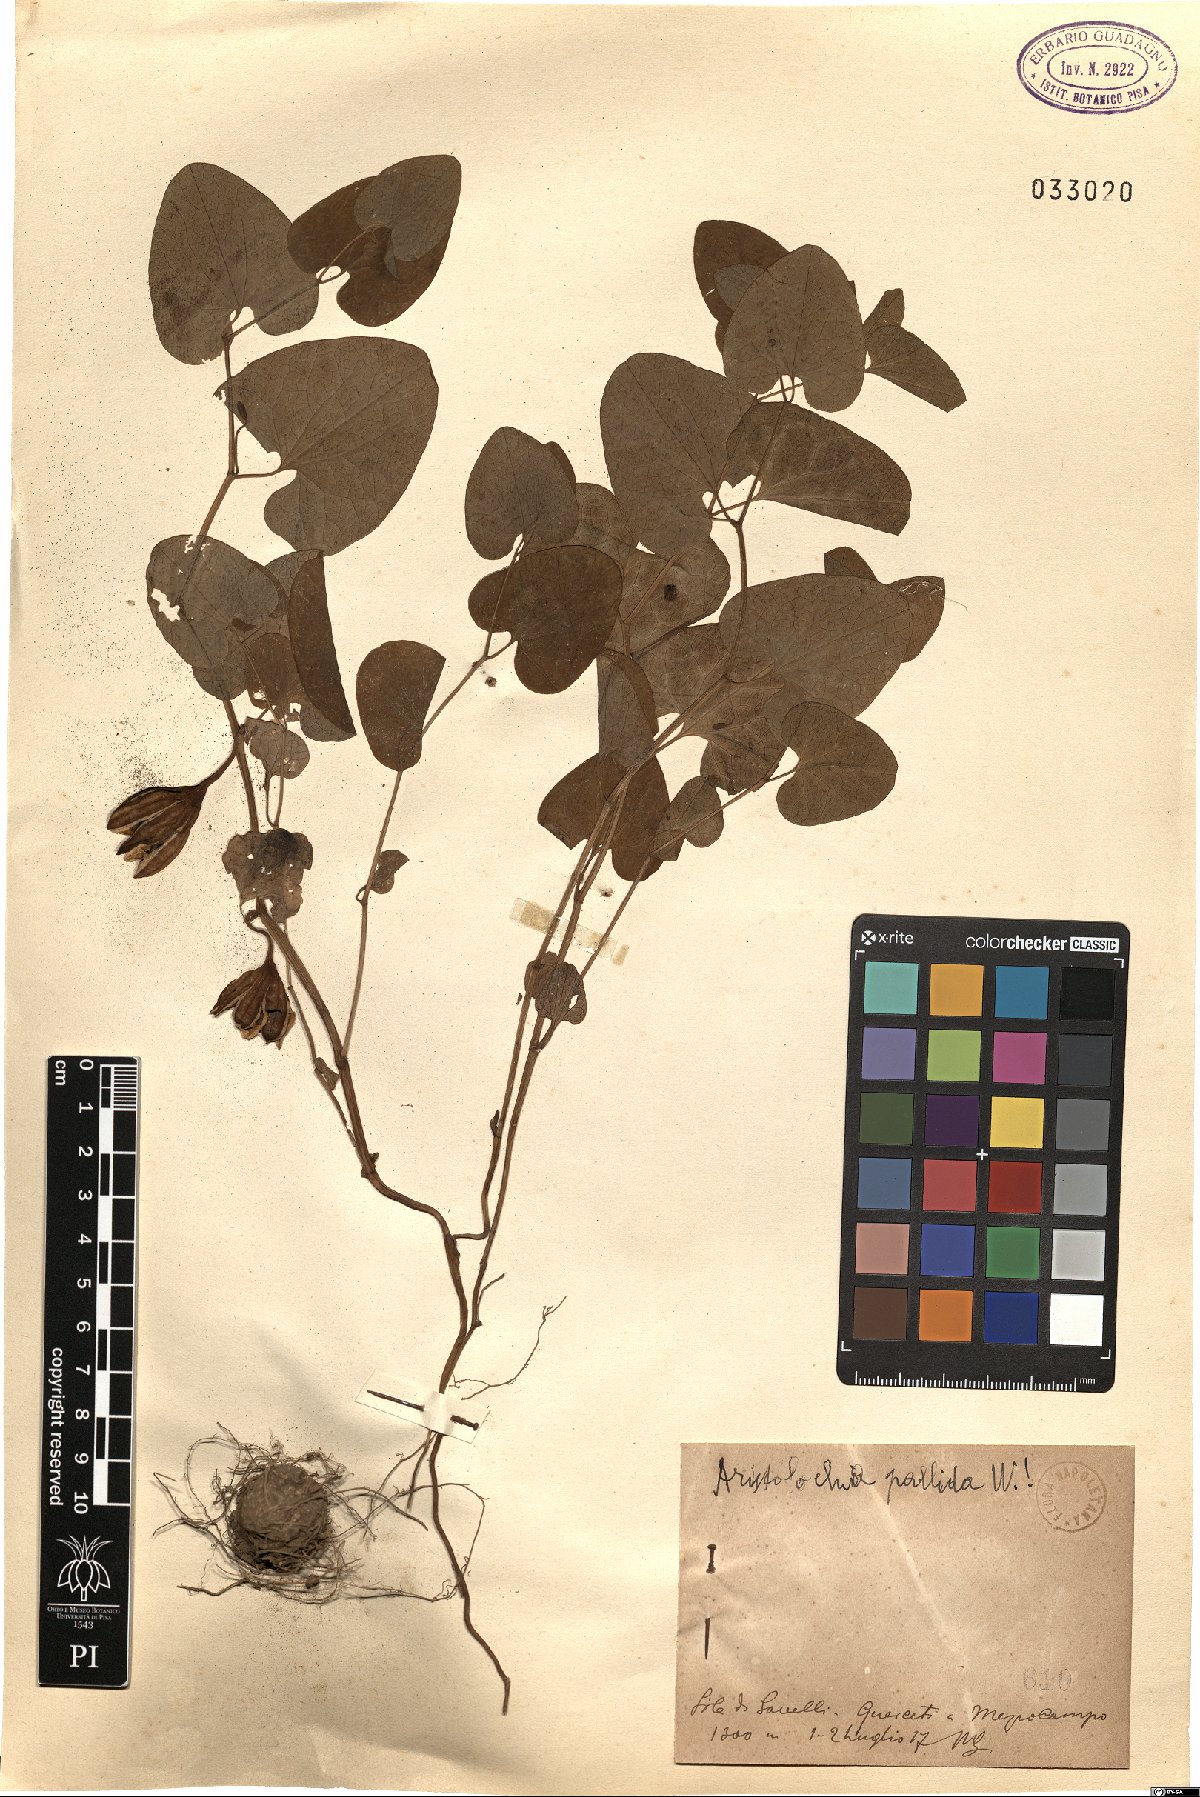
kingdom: Plantae
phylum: Tracheophyta
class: Magnoliopsida
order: Piperales
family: Aristolochiaceae
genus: Aristolochia
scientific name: Aristolochia pallida
